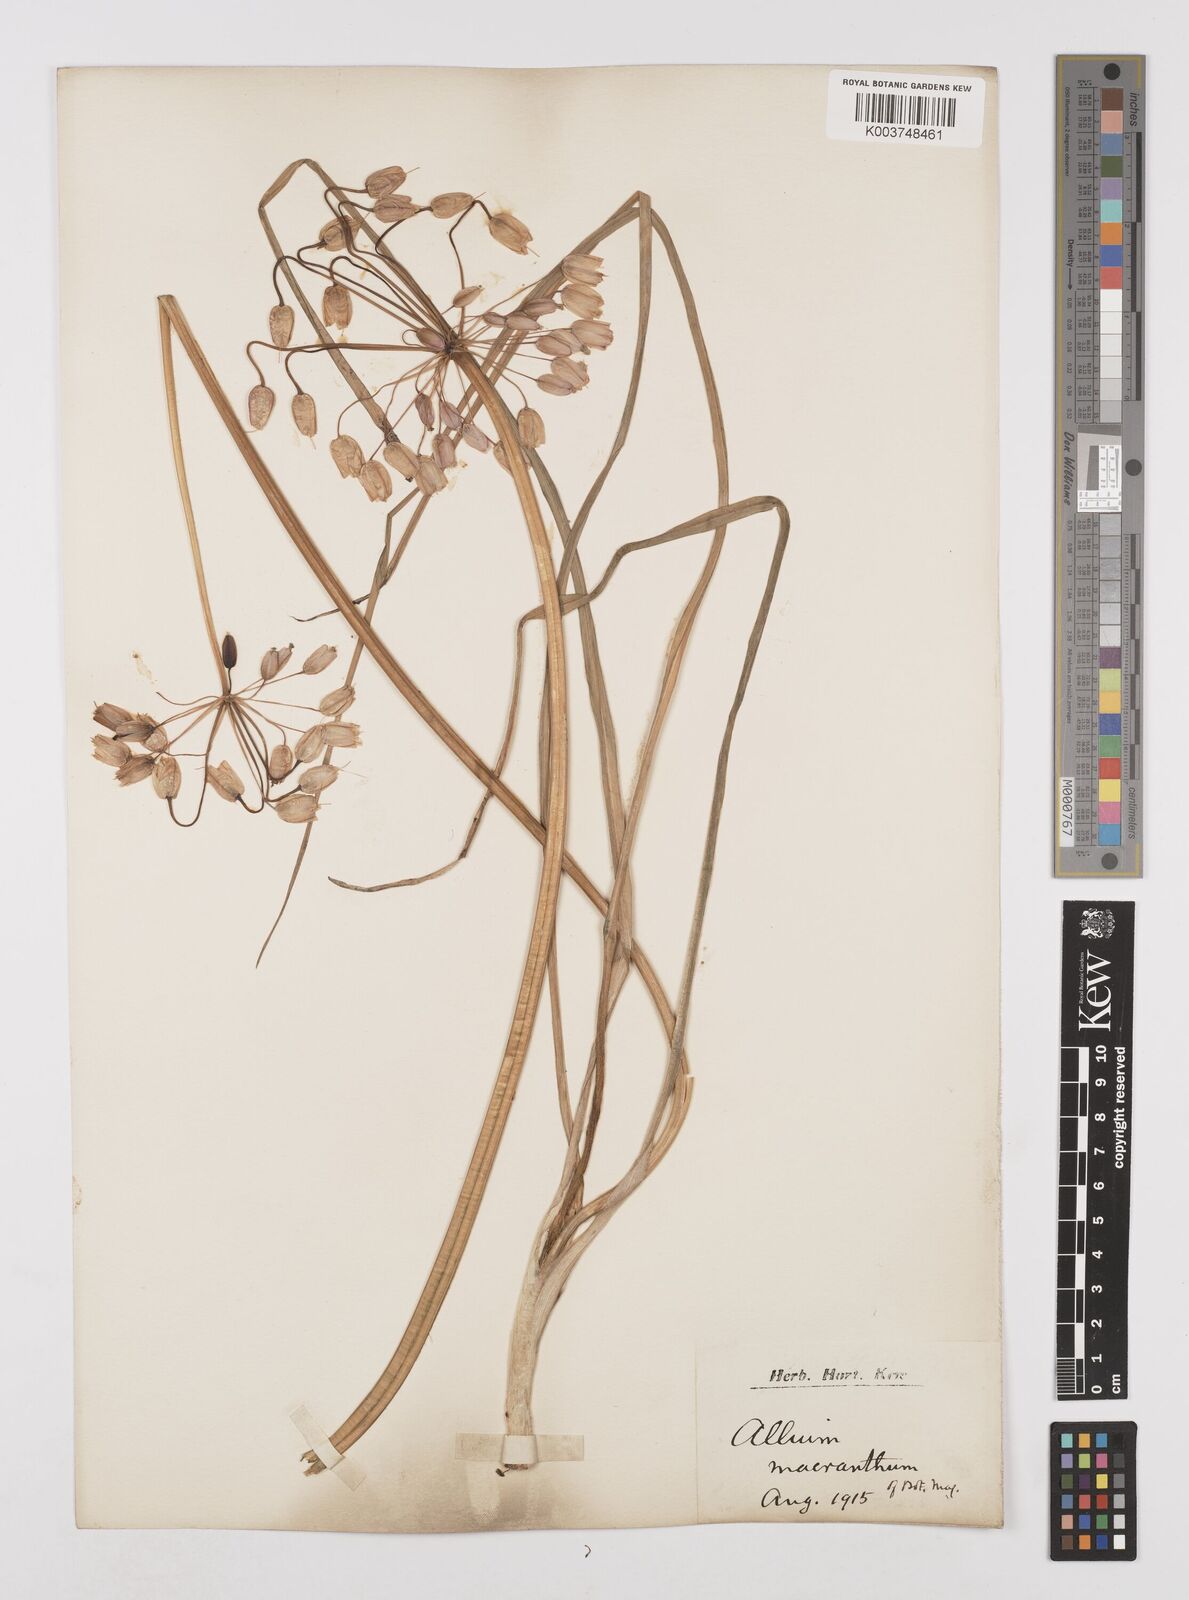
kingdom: Plantae
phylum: Tracheophyta
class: Liliopsida
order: Asparagales
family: Amaryllidaceae
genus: Allium
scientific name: Allium macranthum
